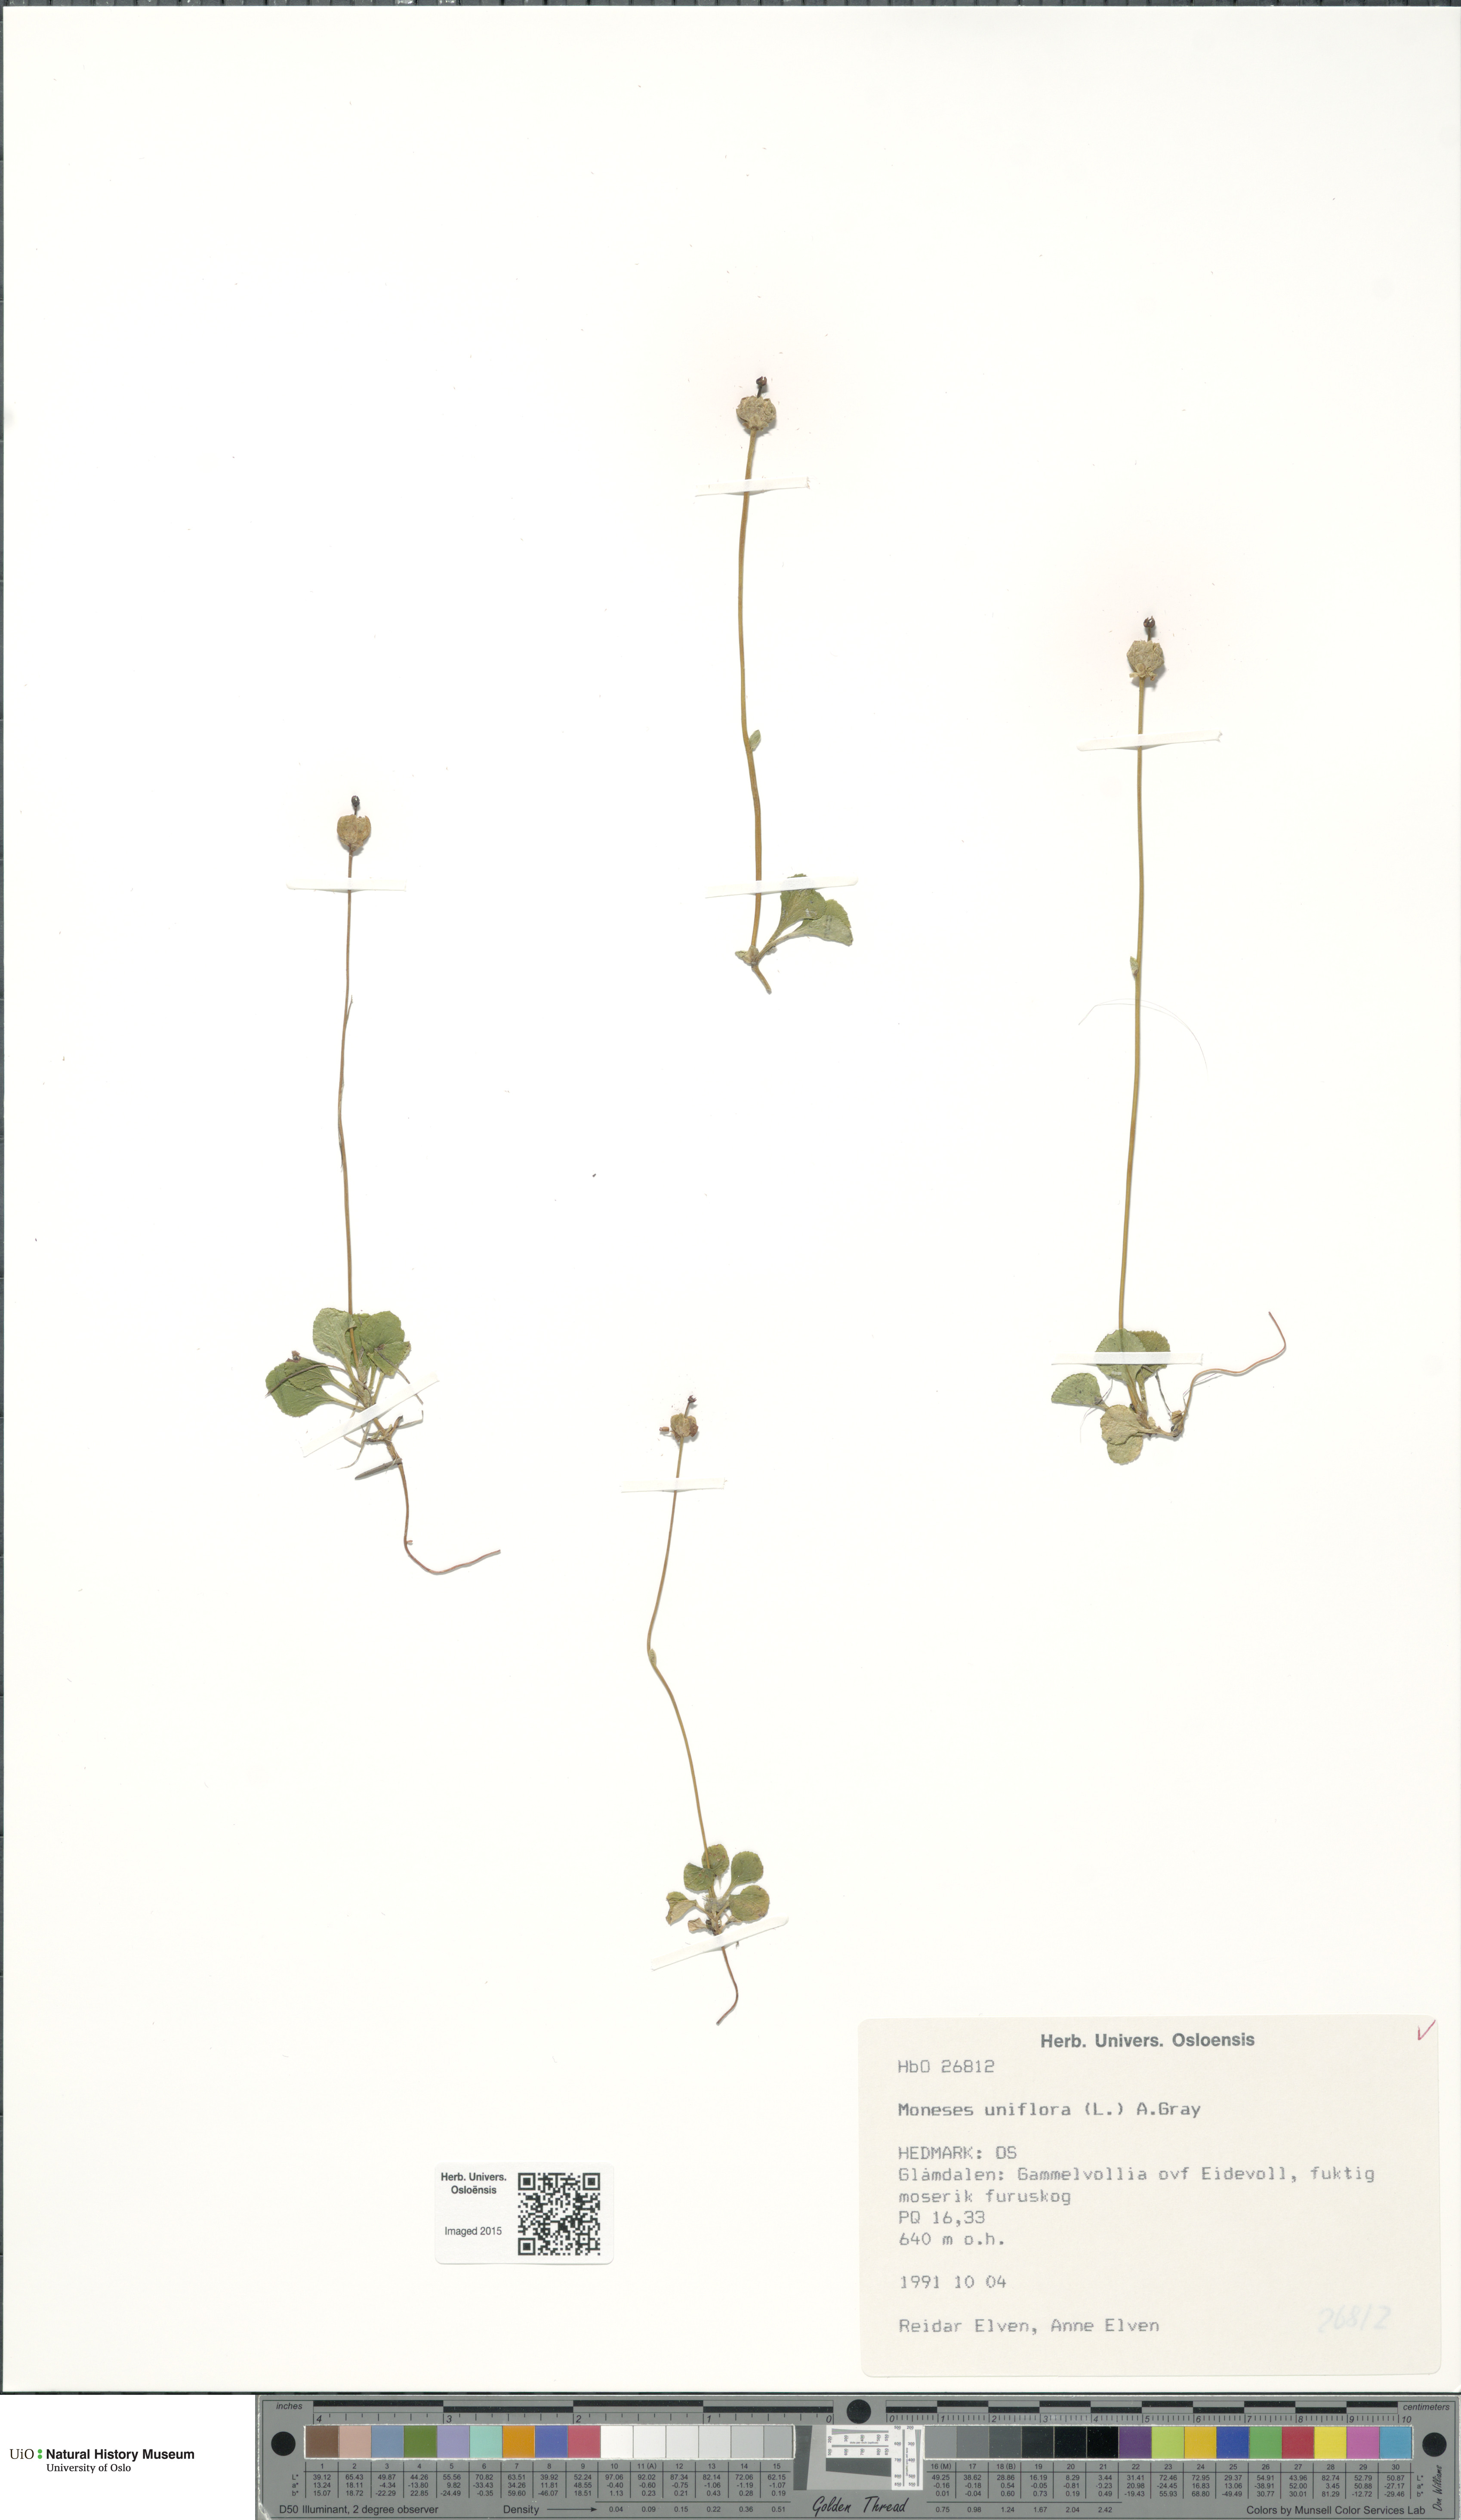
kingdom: Plantae
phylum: Tracheophyta
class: Magnoliopsida
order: Ericales
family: Ericaceae
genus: Moneses
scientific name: Moneses uniflora
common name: One-flowered wintergreen
